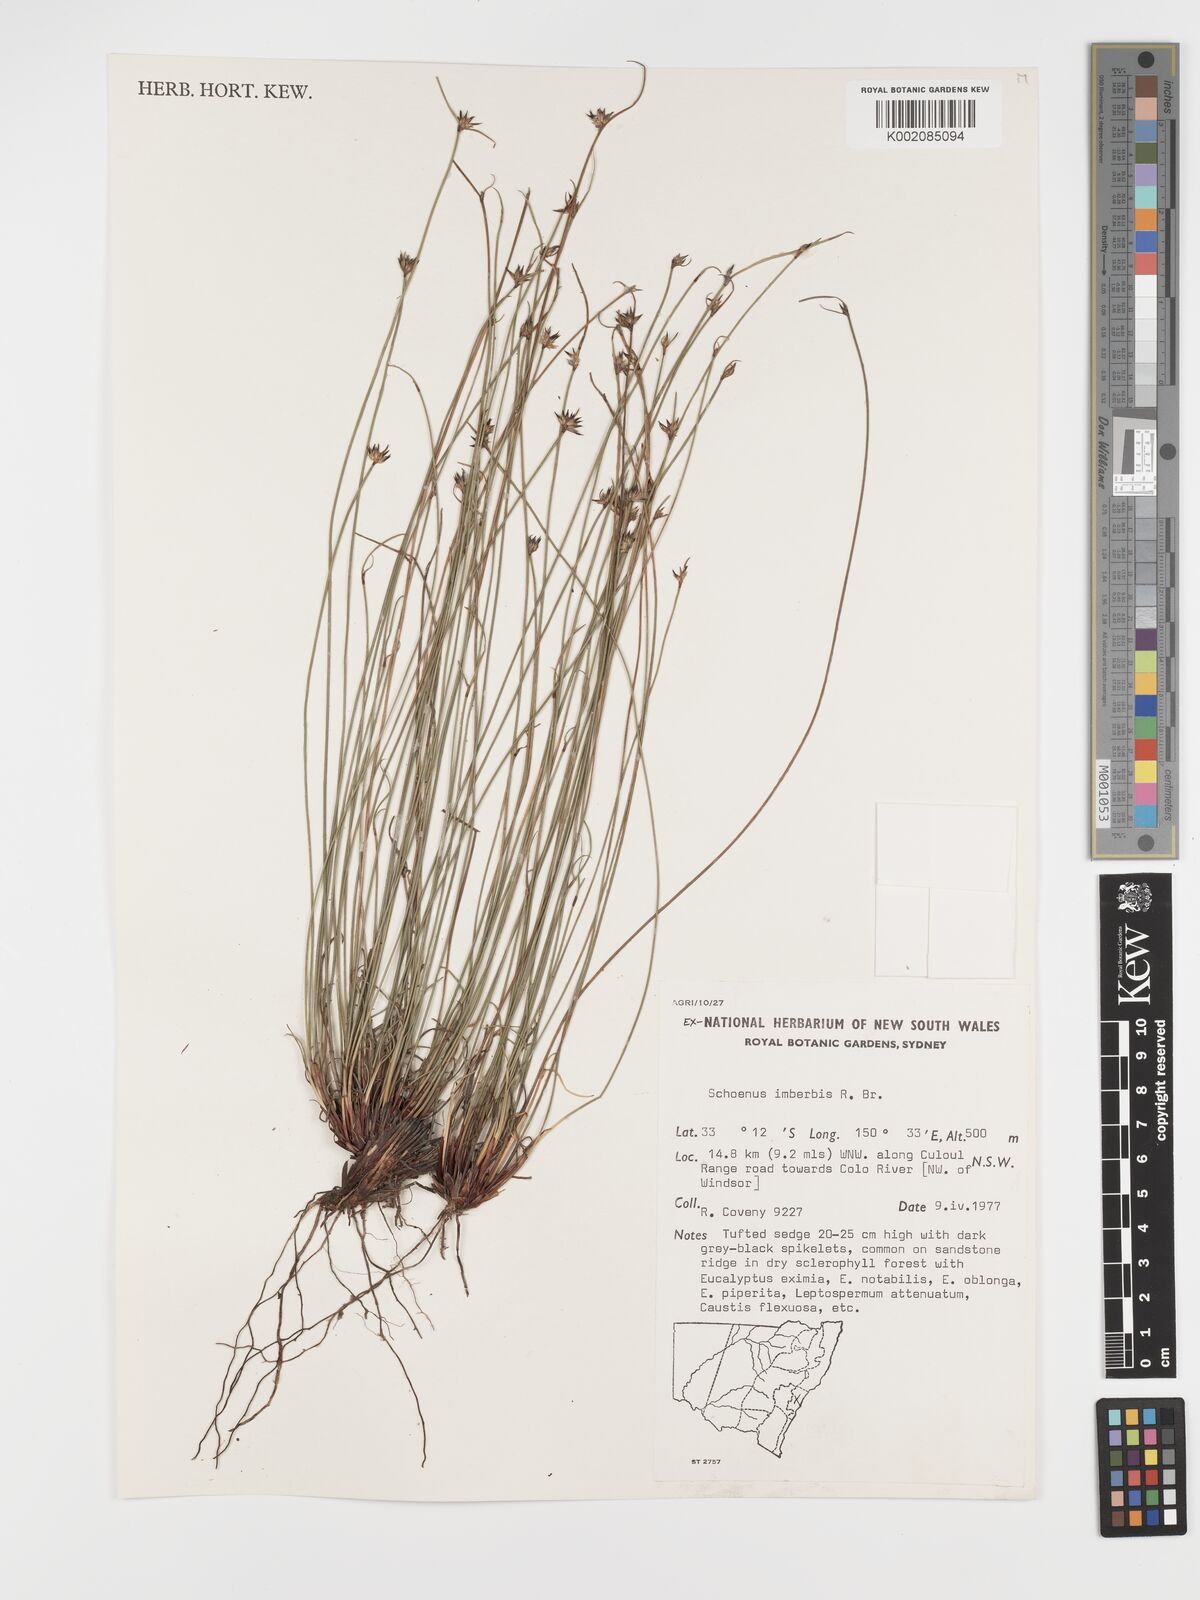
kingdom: Plantae
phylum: Tracheophyta
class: Liliopsida
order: Poales
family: Cyperaceae
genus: Schoenus
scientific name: Schoenus imberbis
